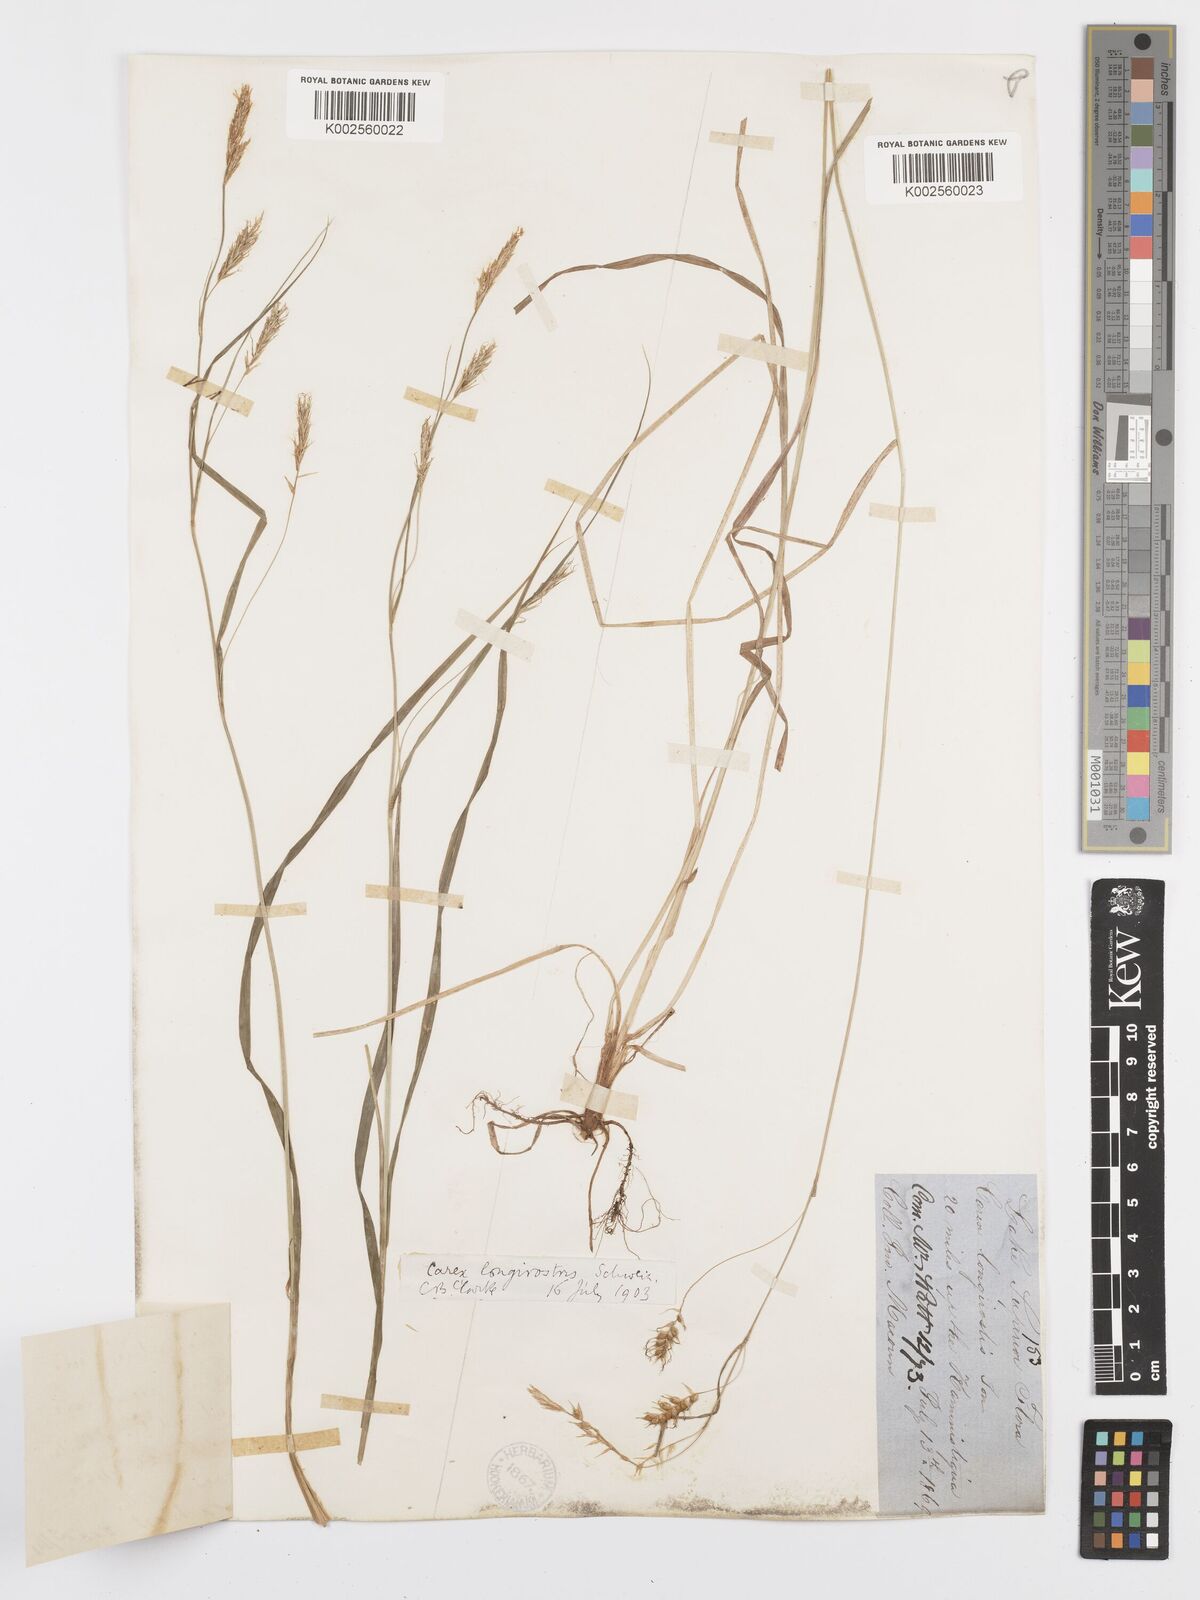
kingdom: Plantae
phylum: Tracheophyta
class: Liliopsida
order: Poales
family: Cyperaceae
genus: Carex
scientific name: Carex sprengelii
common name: Long-beaked sedge
